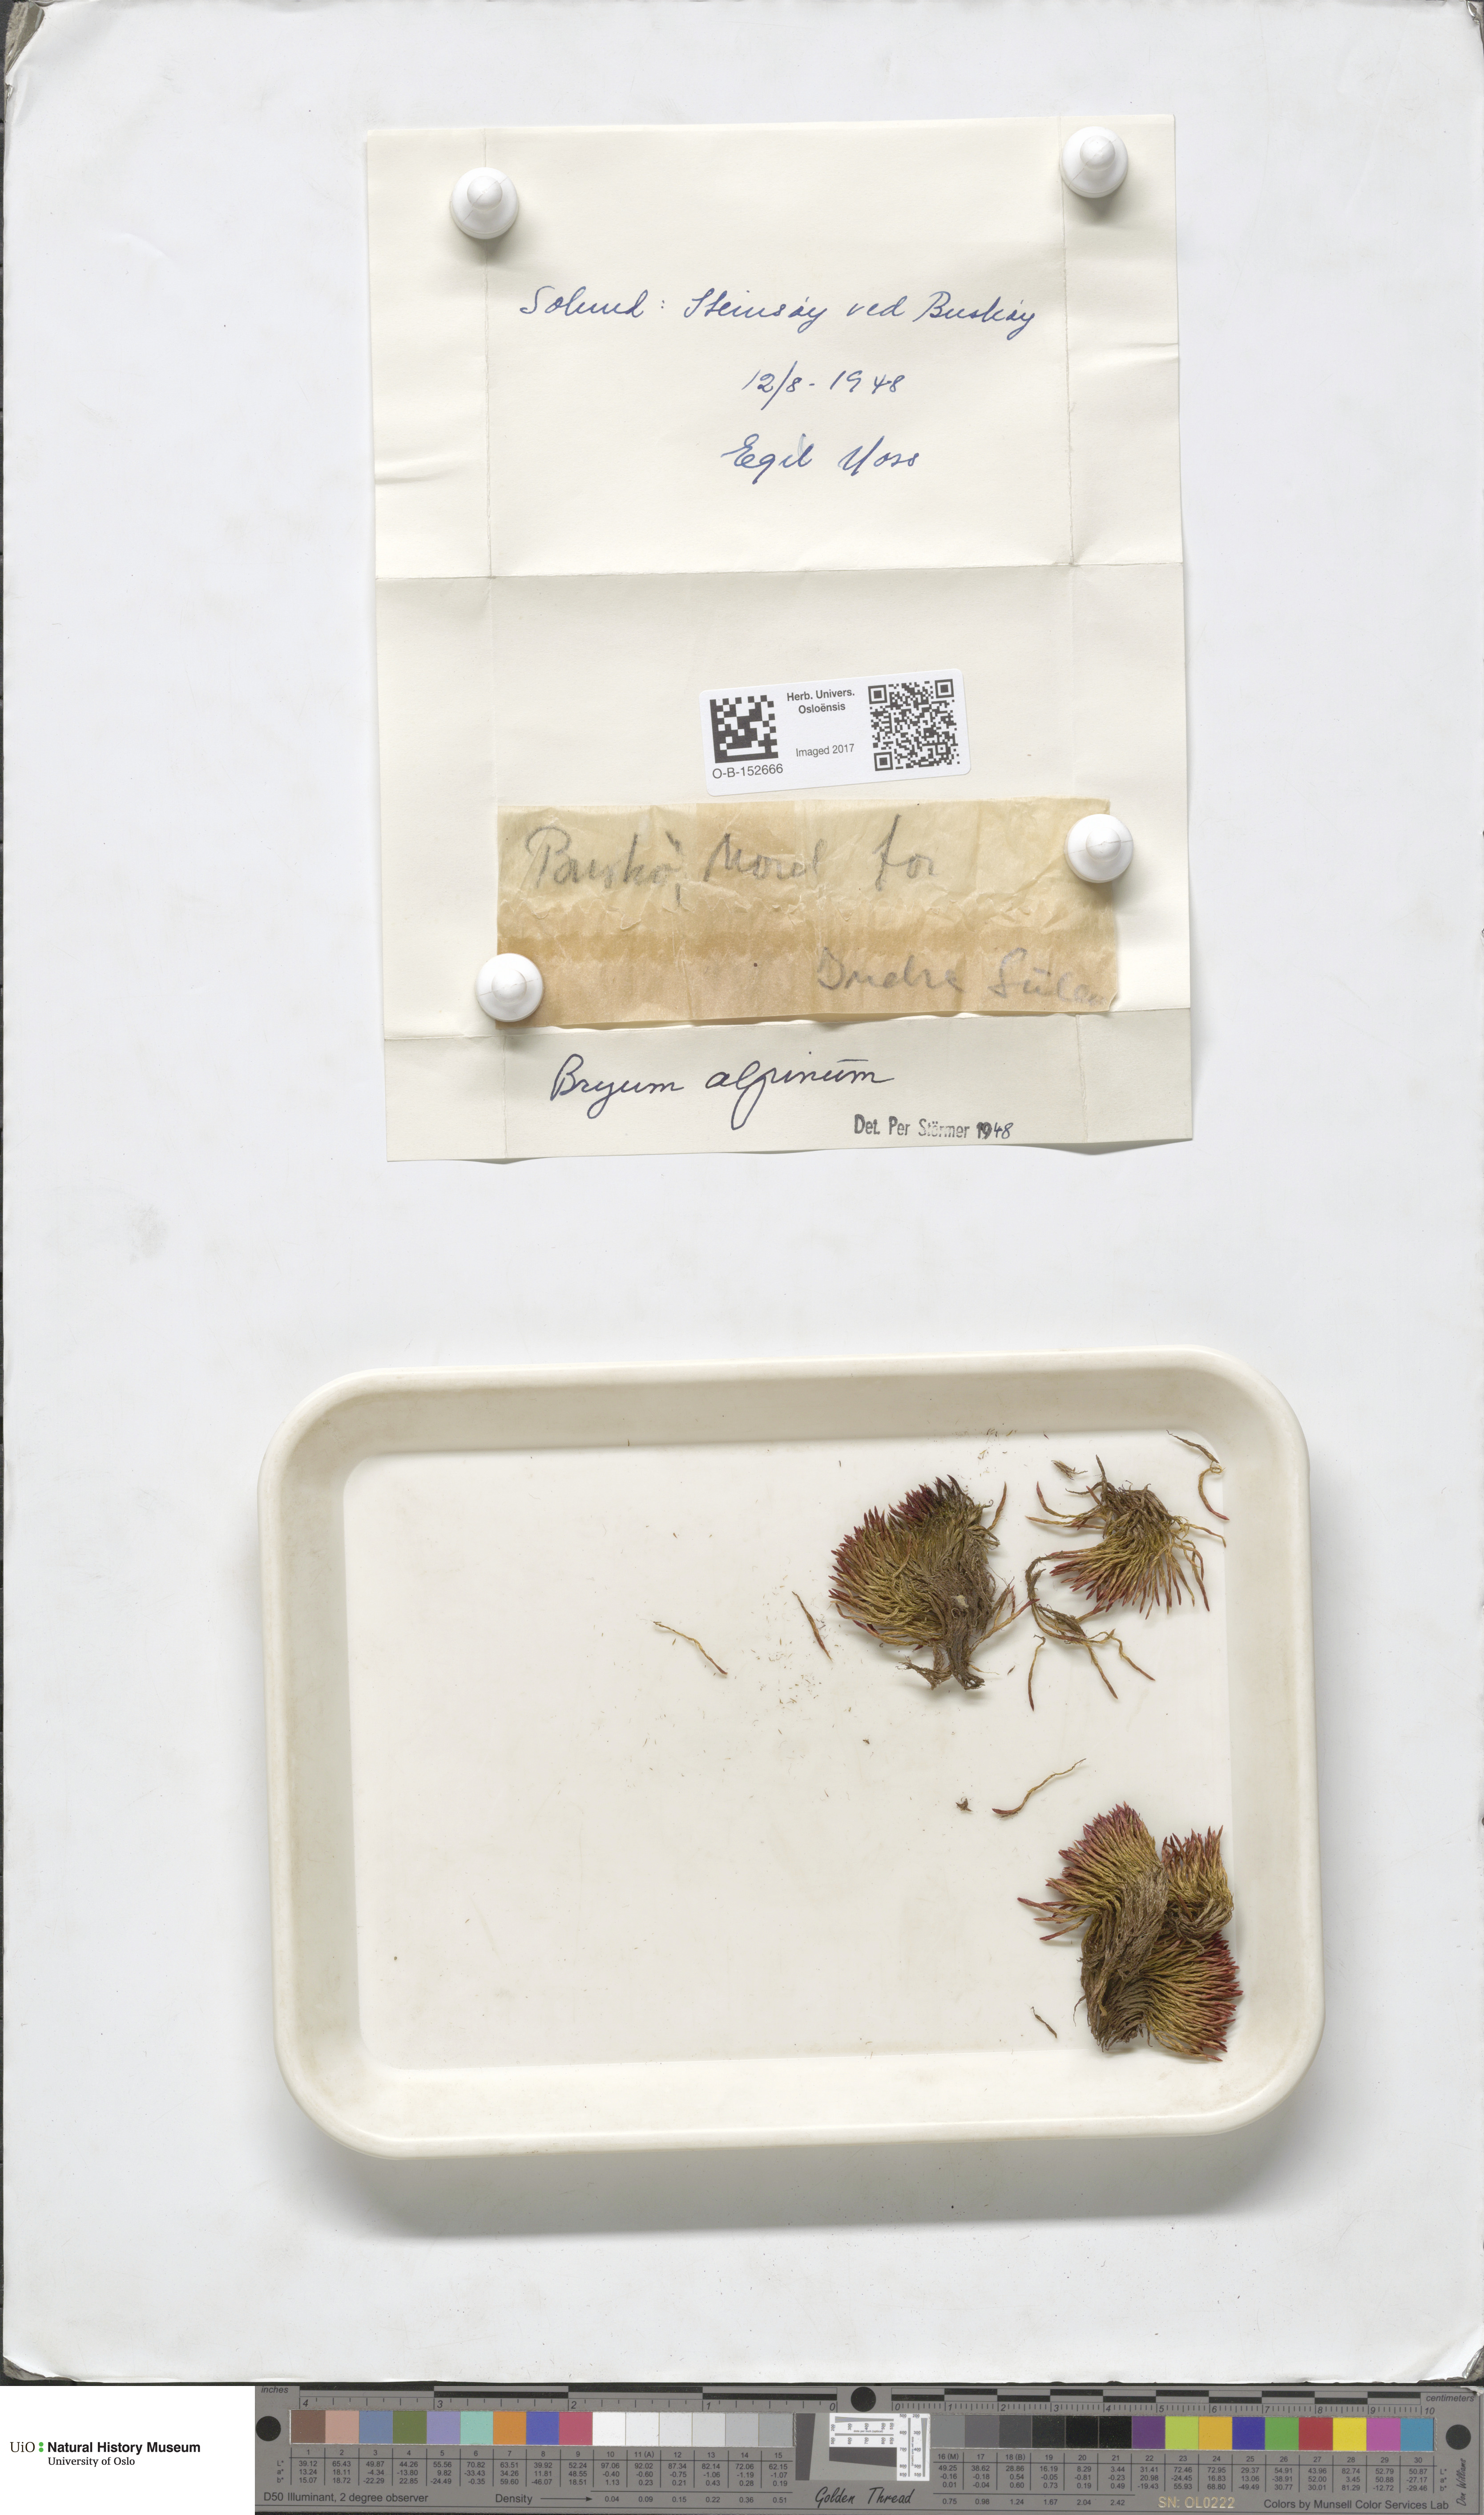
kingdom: Plantae
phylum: Bryophyta
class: Bryopsida
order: Bryales
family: Bryaceae
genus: Imbribryum
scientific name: Imbribryum alpinum
